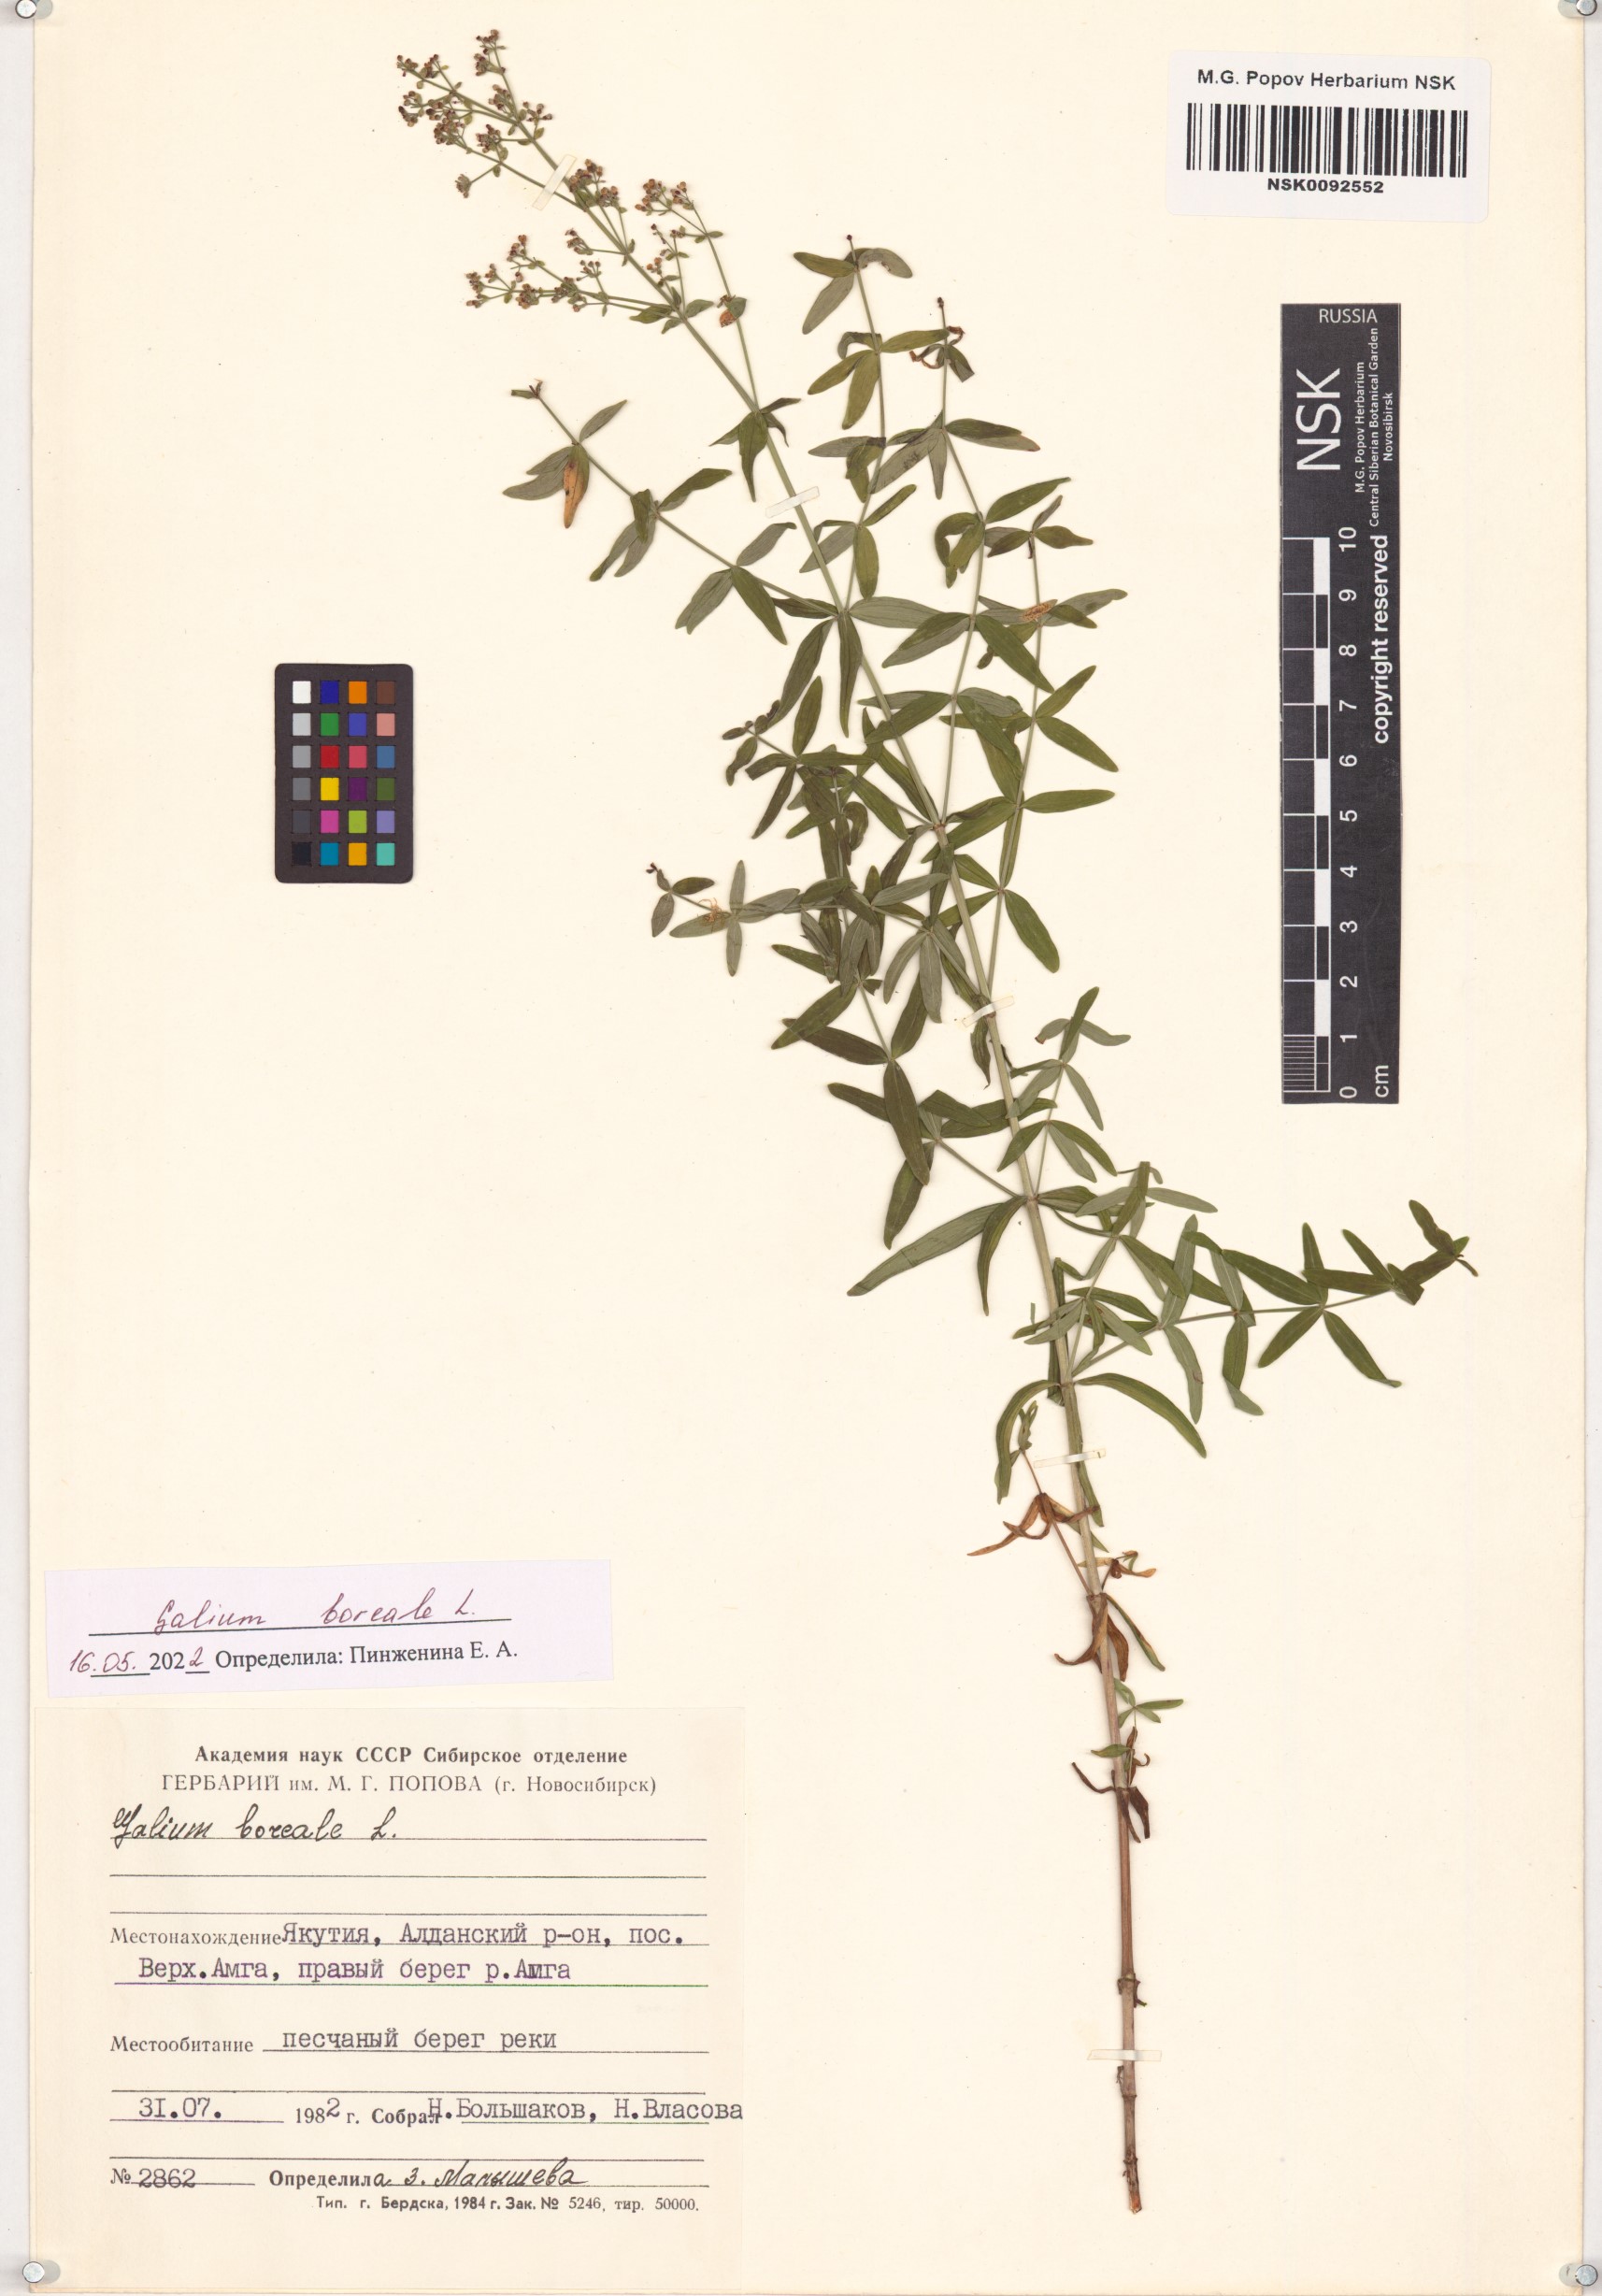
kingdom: Plantae
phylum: Tracheophyta
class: Magnoliopsida
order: Gentianales
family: Rubiaceae
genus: Galium
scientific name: Galium boreale
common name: Northern bedstraw
